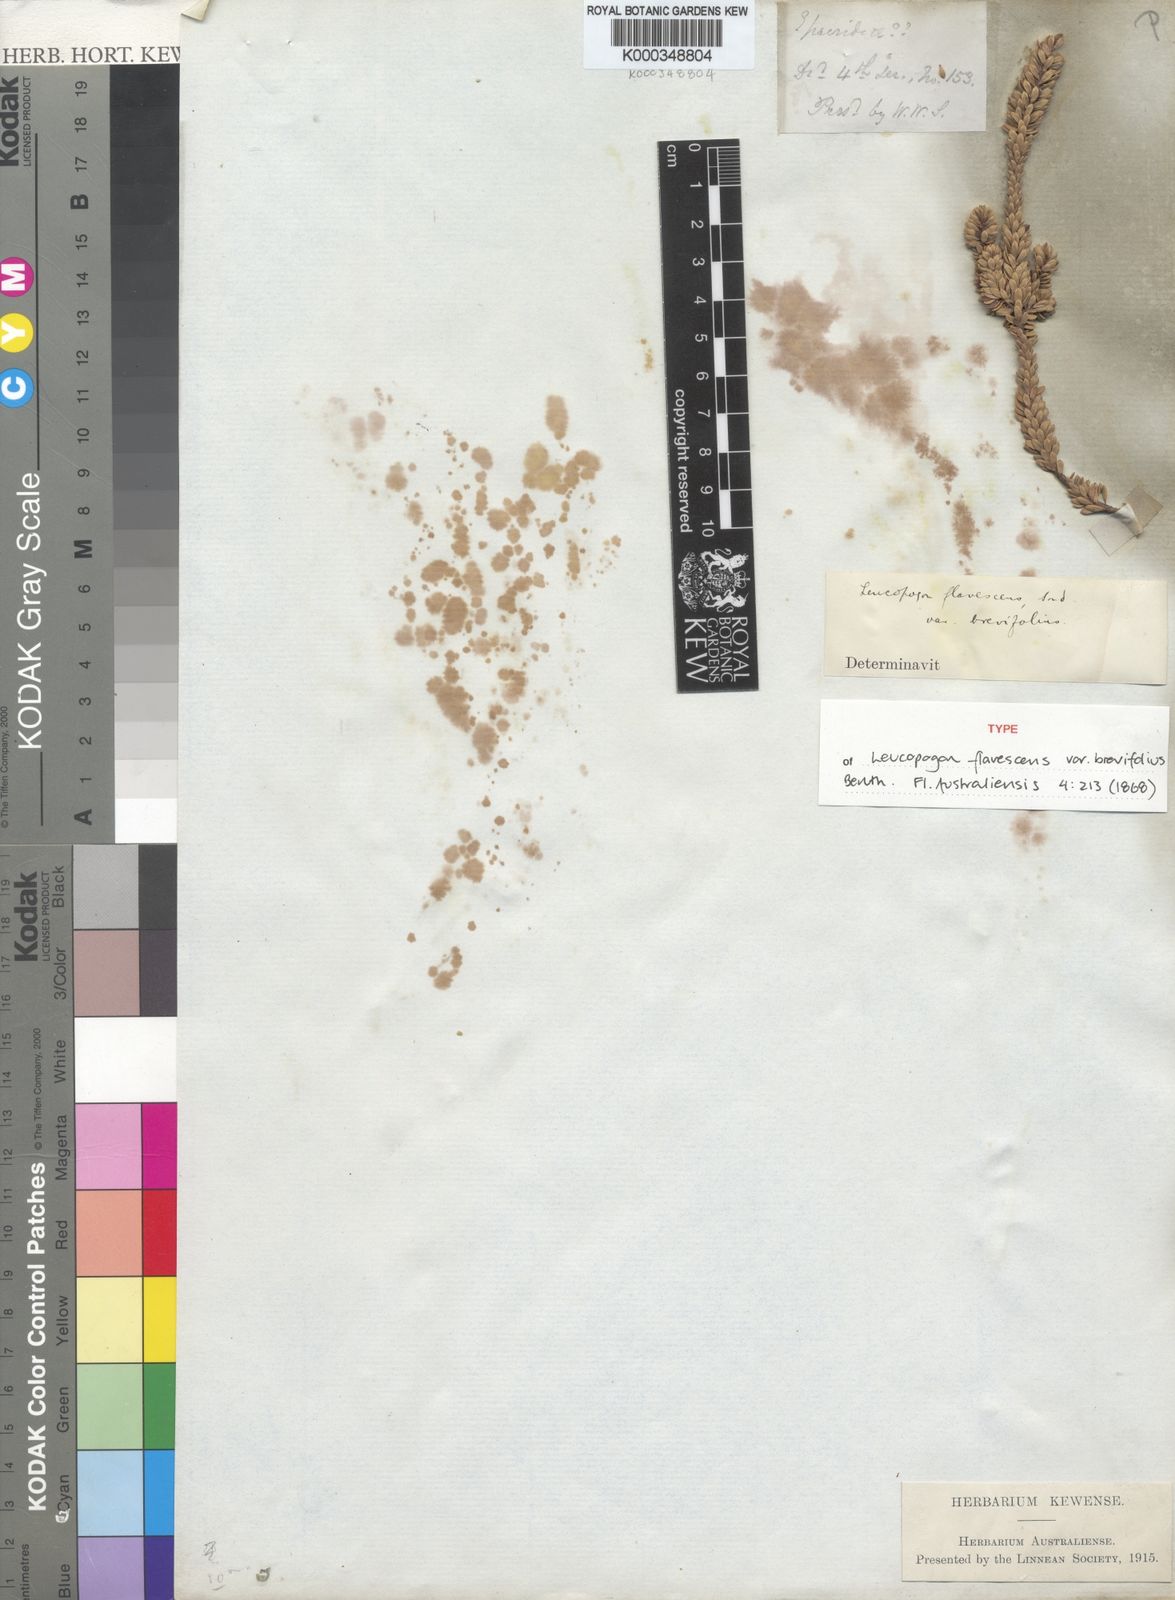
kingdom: Plantae
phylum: Tracheophyta
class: Magnoliopsida
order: Ericales
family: Ericaceae
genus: Styphelia
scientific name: Styphelia densifolia
